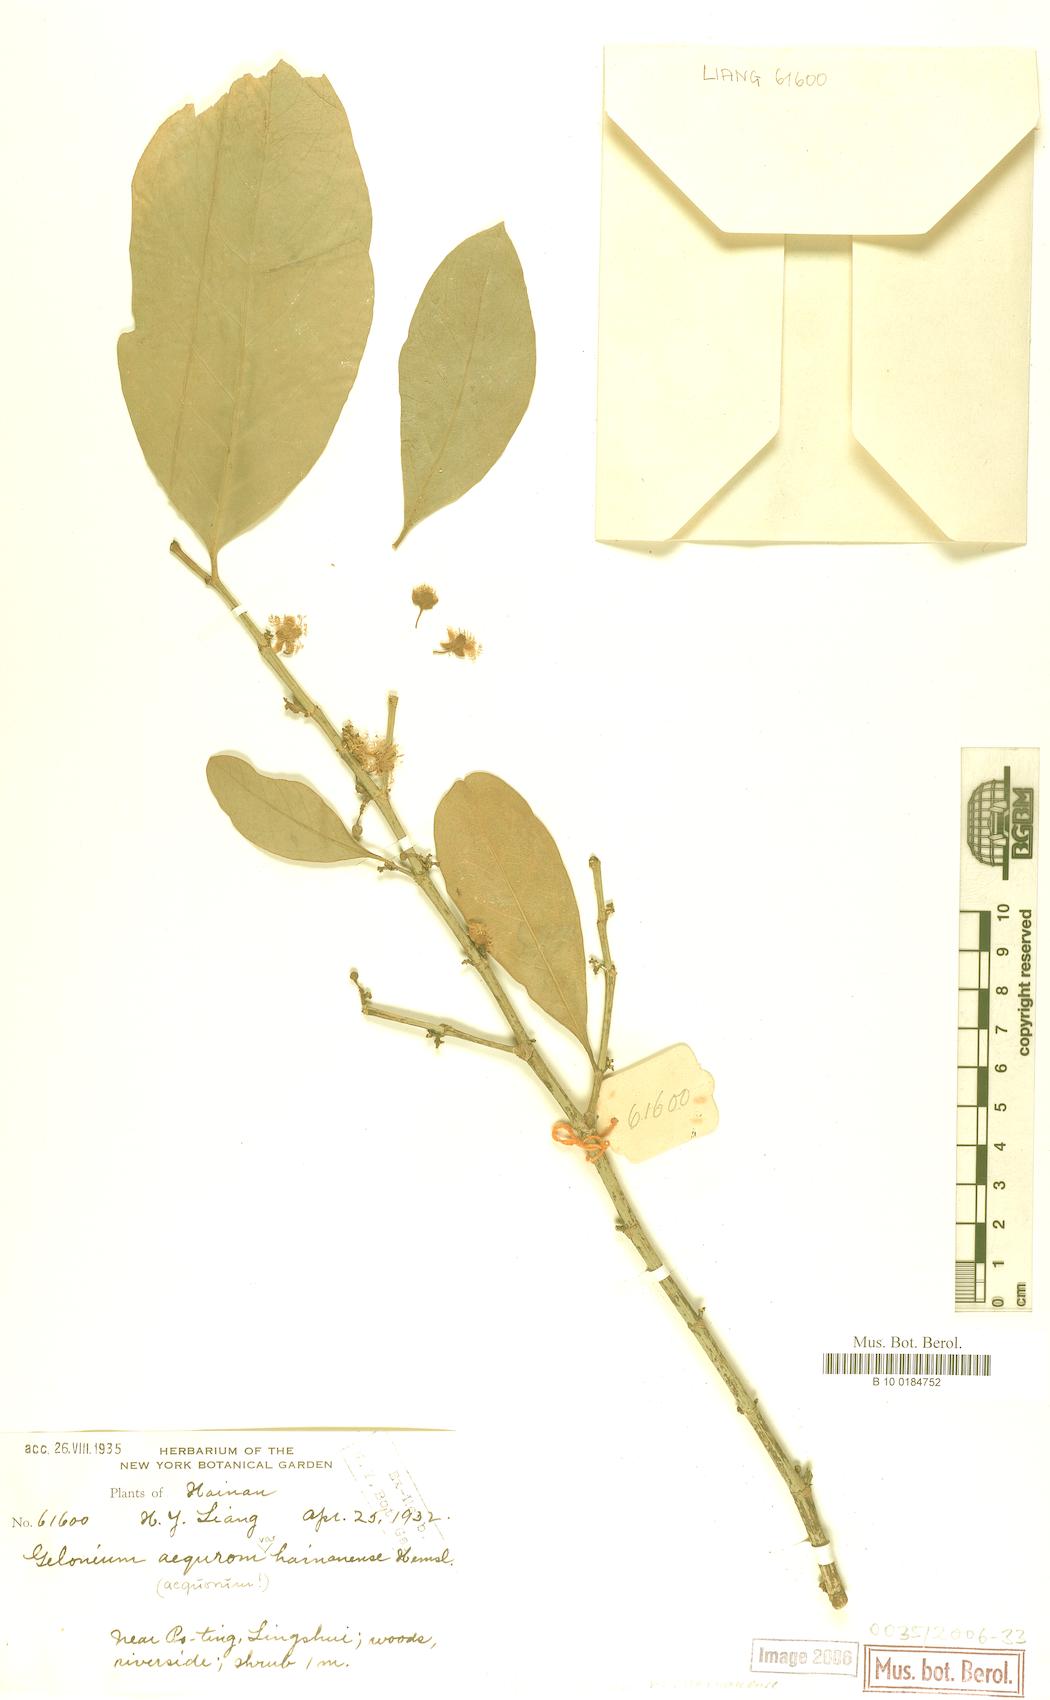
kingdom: Plantae
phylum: Tracheophyta
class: Magnoliopsida
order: Malpighiales
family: Euphorbiaceae
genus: Suregada
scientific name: Suregada multiflora
